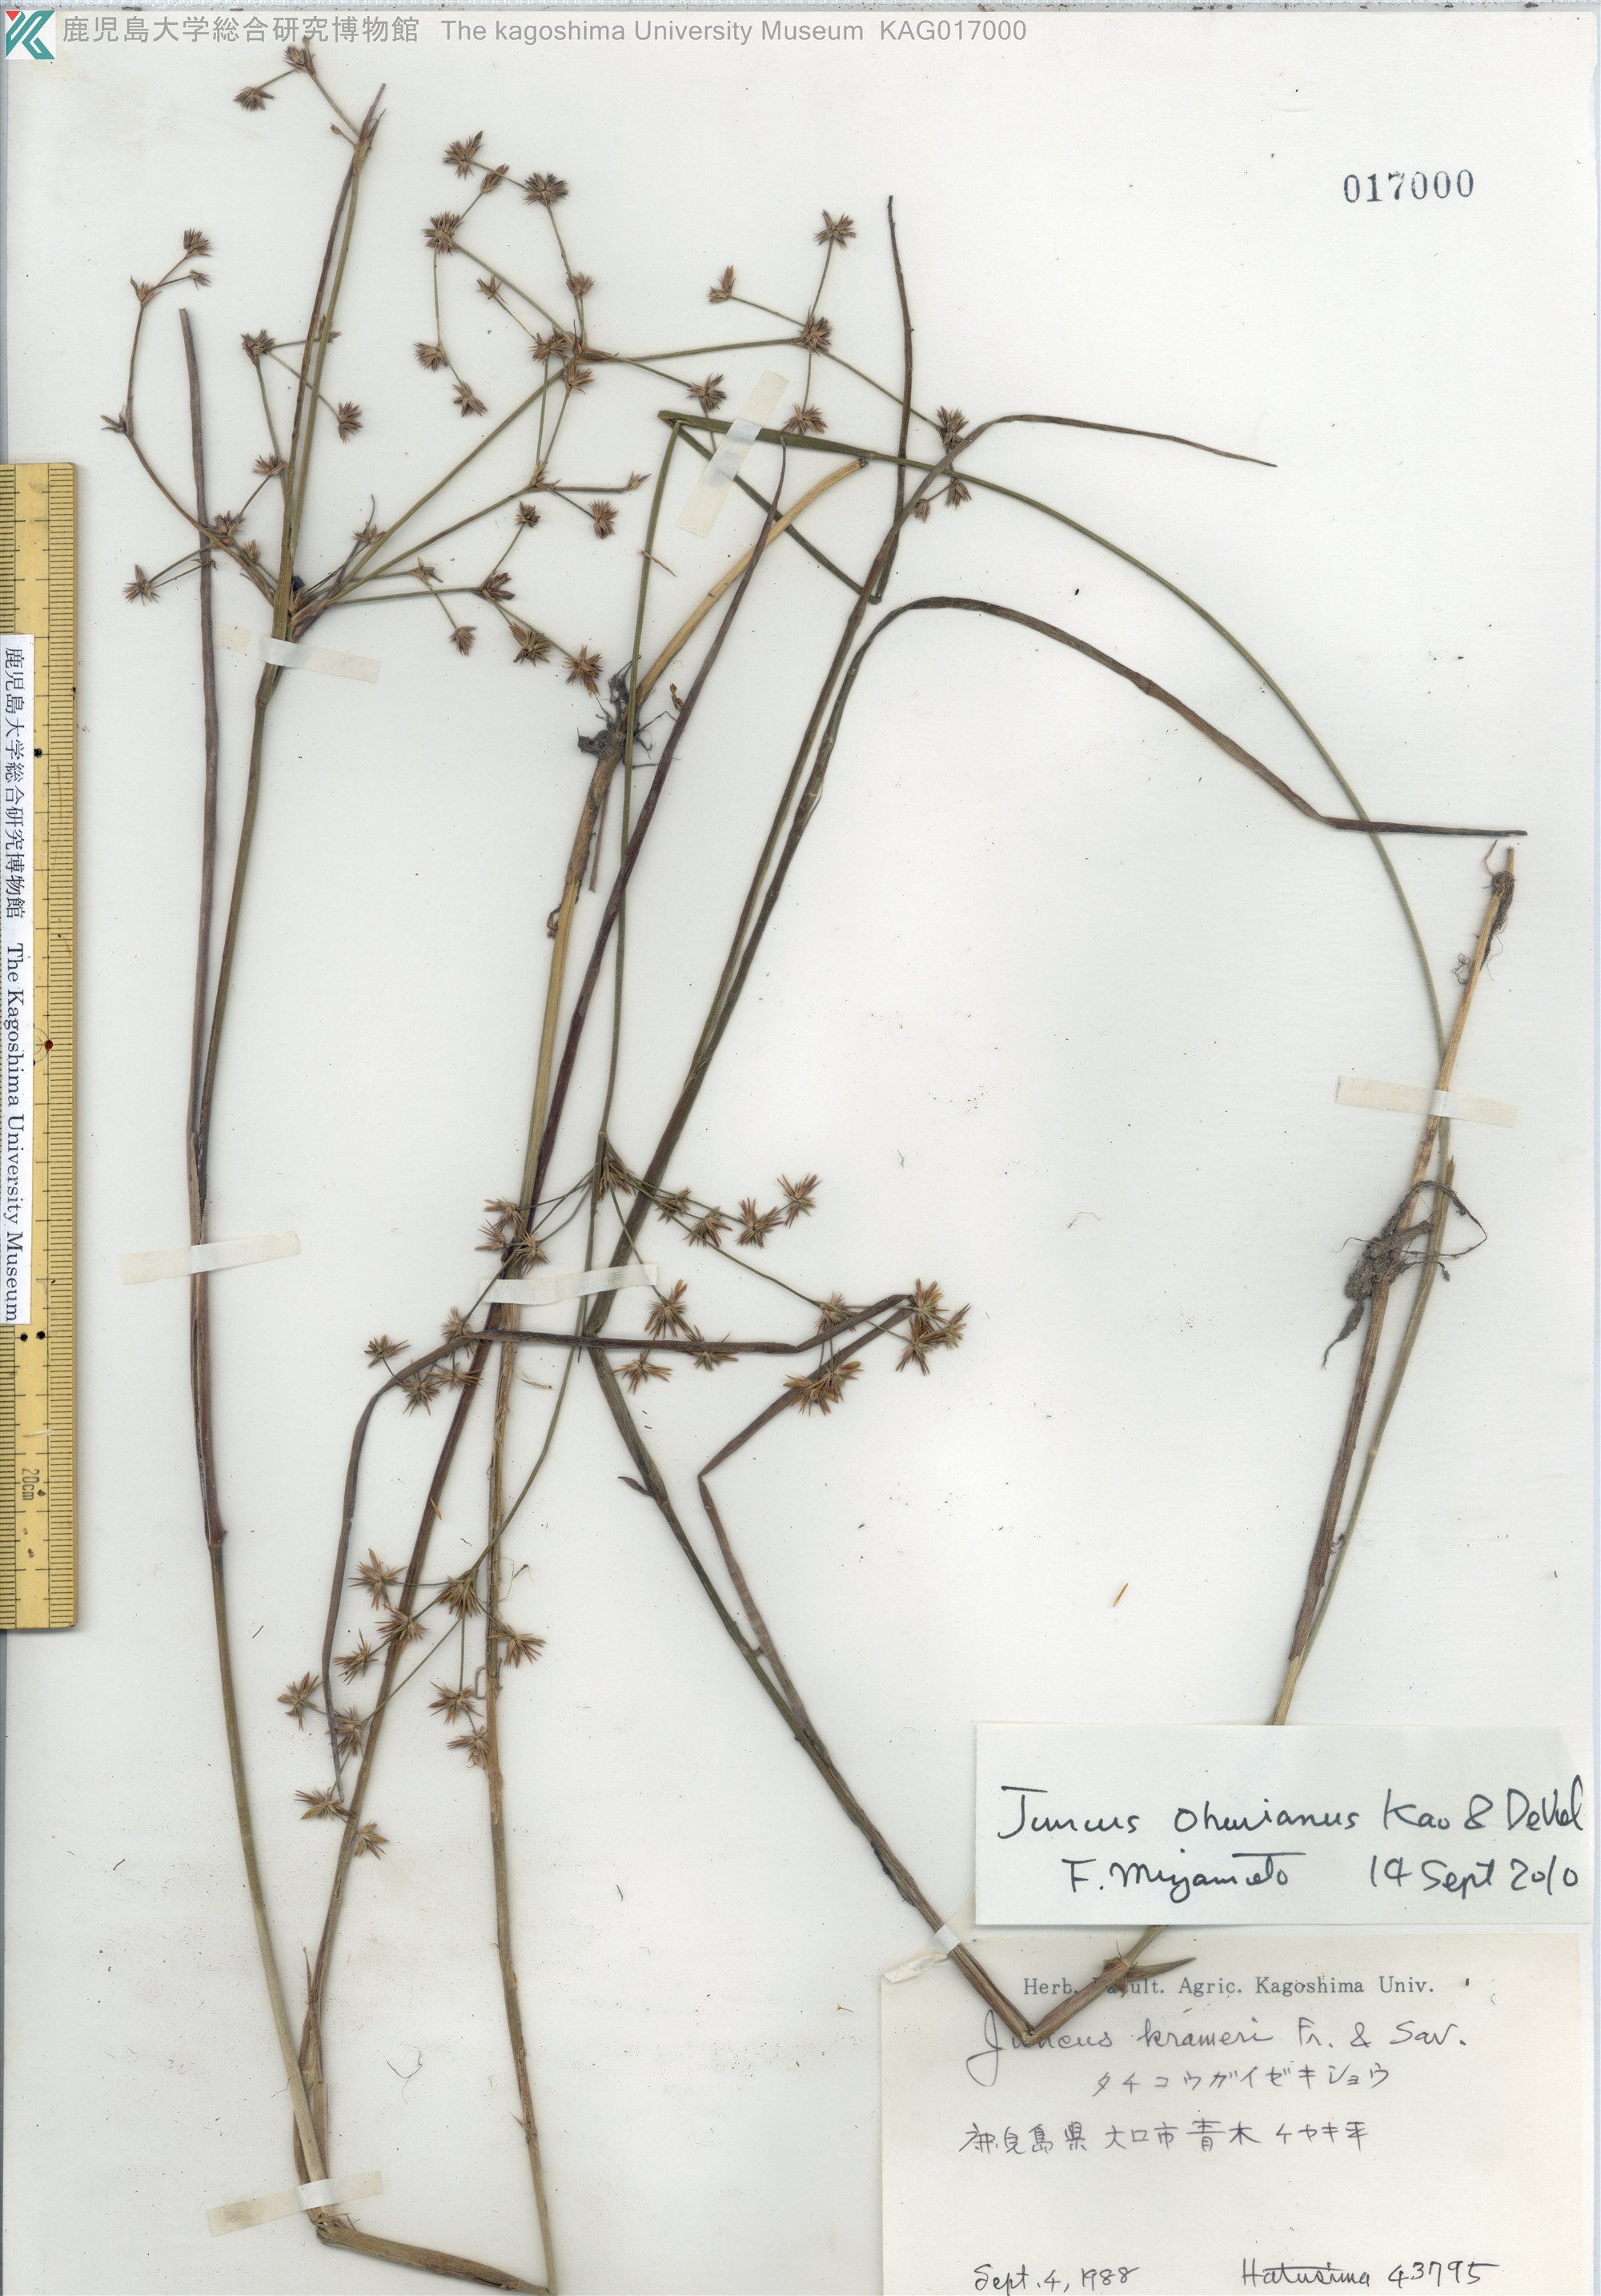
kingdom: Plantae
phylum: Tracheophyta
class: Liliopsida
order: Poales
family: Juncaceae
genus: Juncus
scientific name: Juncus wallichianus
